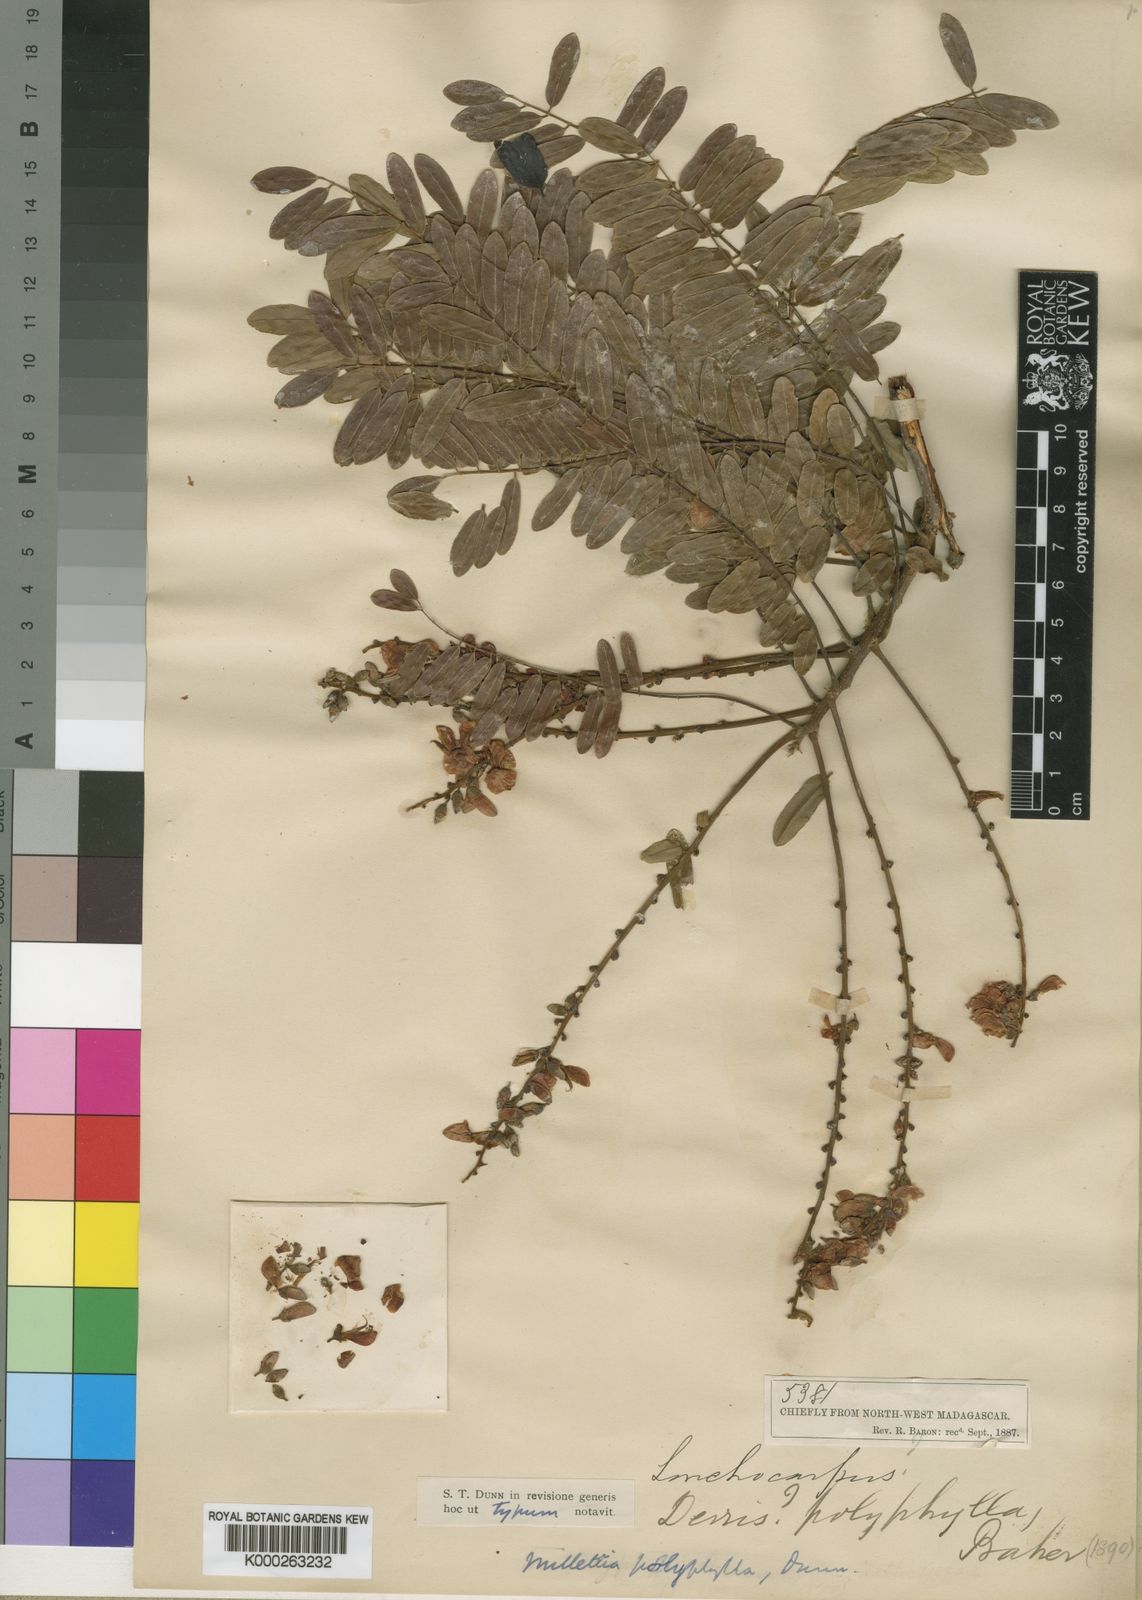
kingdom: Plantae
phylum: Tracheophyta
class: Magnoliopsida
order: Fabales
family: Fabaceae
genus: Millettia
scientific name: Millettia lenneoides
